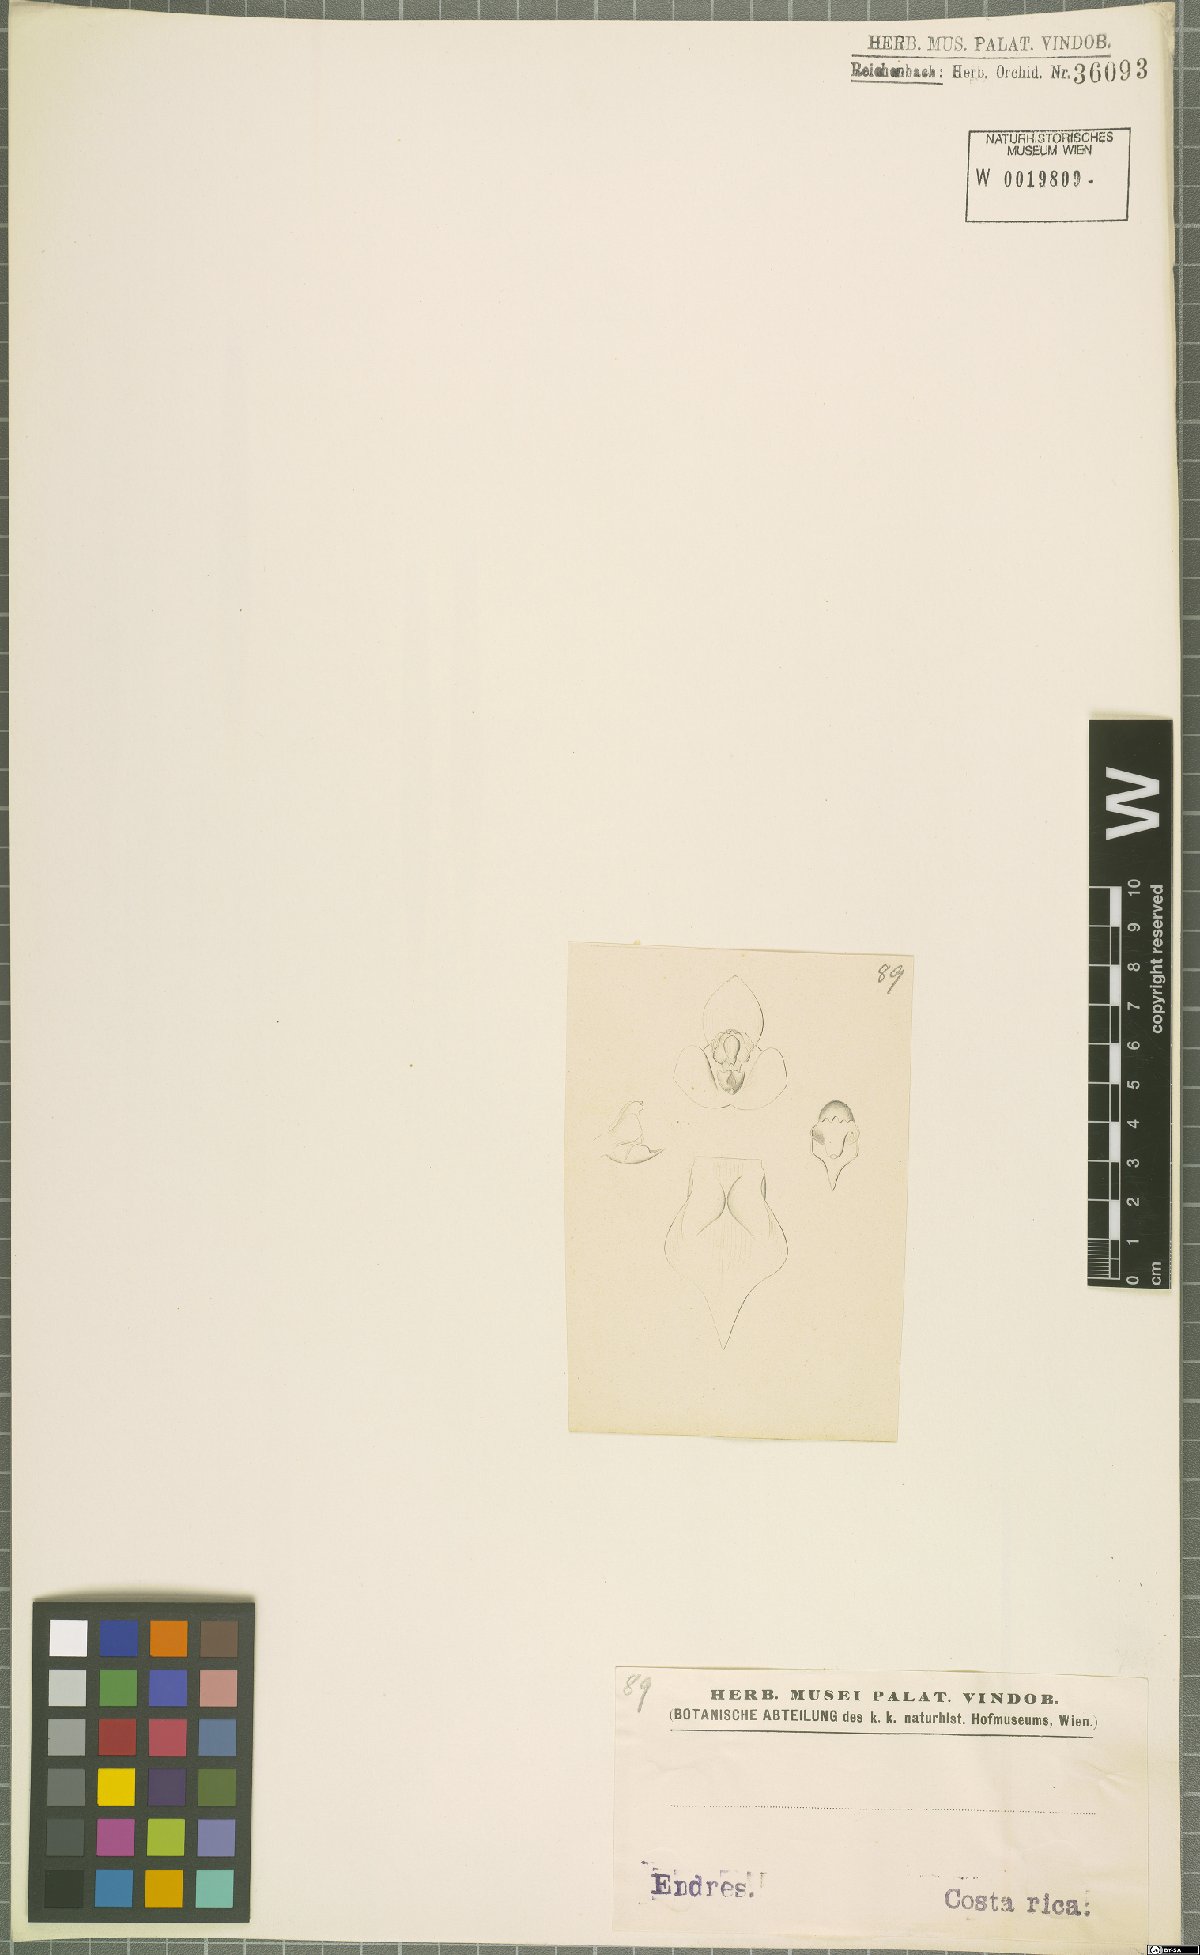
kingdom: Plantae
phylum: Tracheophyta
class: Liliopsida
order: Asparagales
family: Orchidaceae
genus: Stelis
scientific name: Stelis
